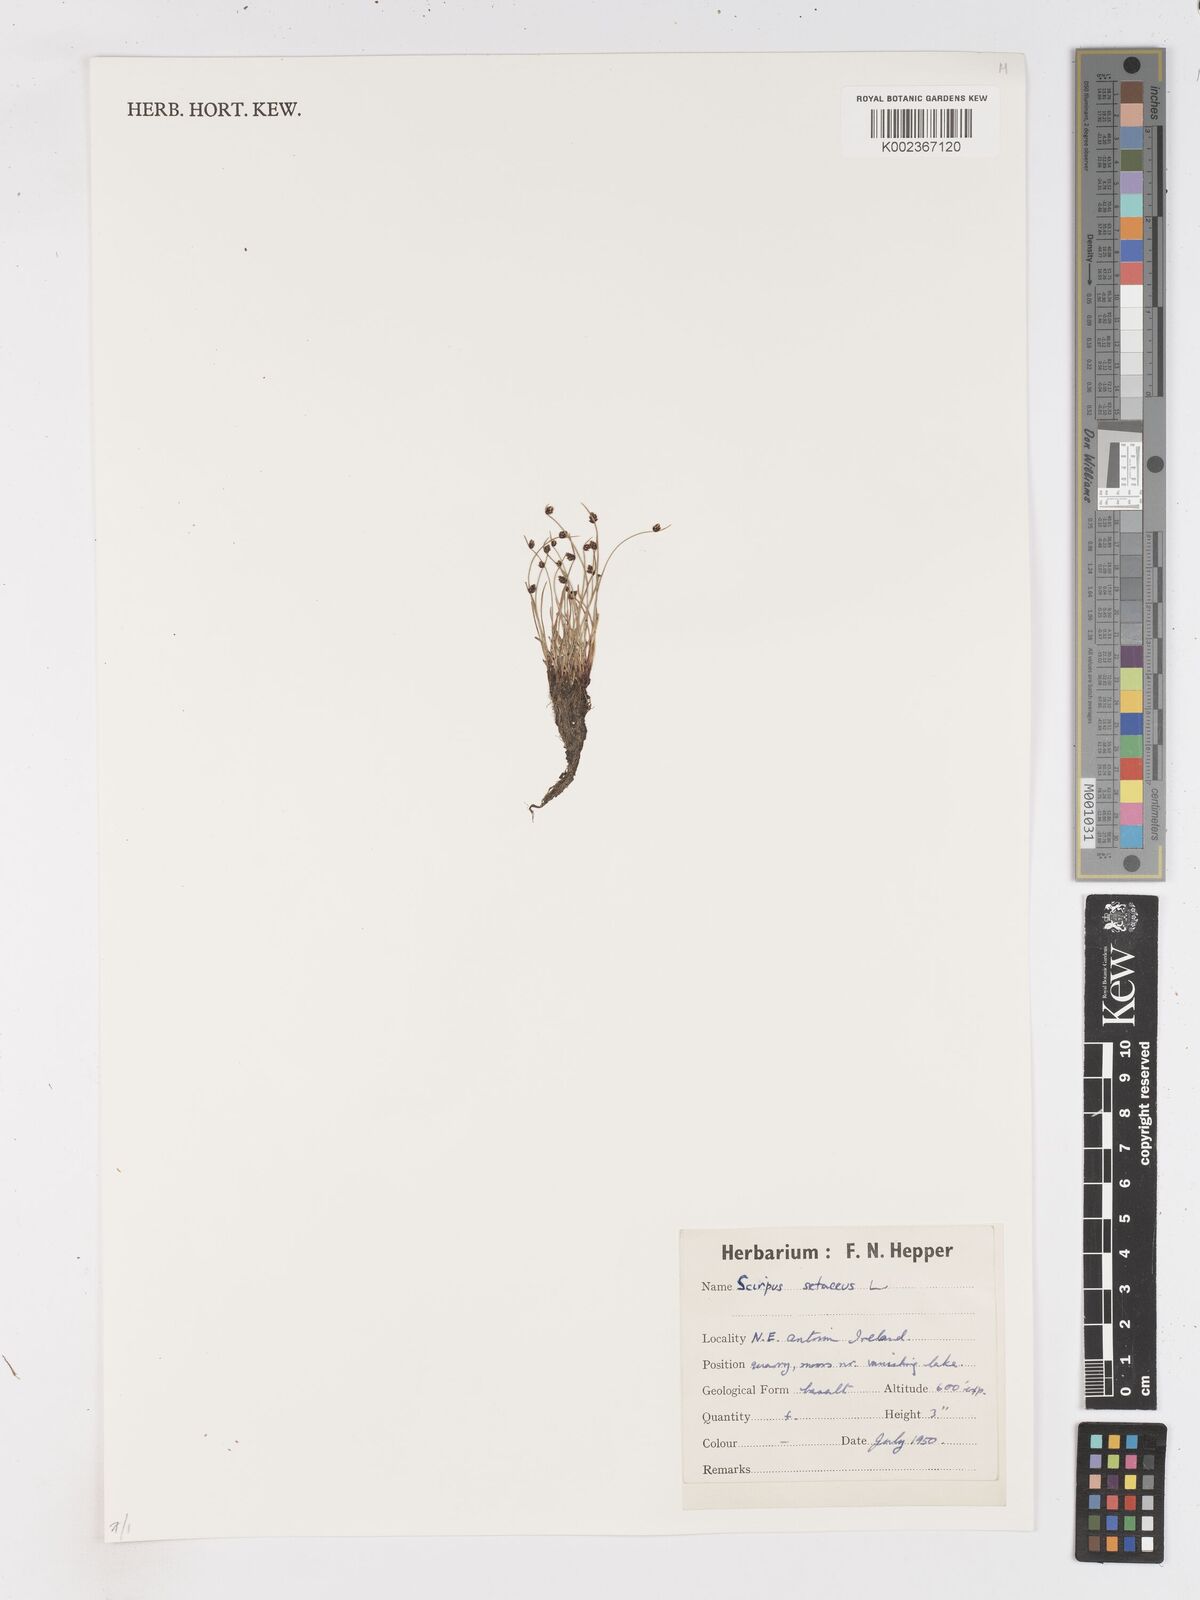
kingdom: Plantae
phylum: Tracheophyta
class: Liliopsida
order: Poales
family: Cyperaceae
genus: Isolepis
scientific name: Isolepis setacea
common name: Bristle club-rush
